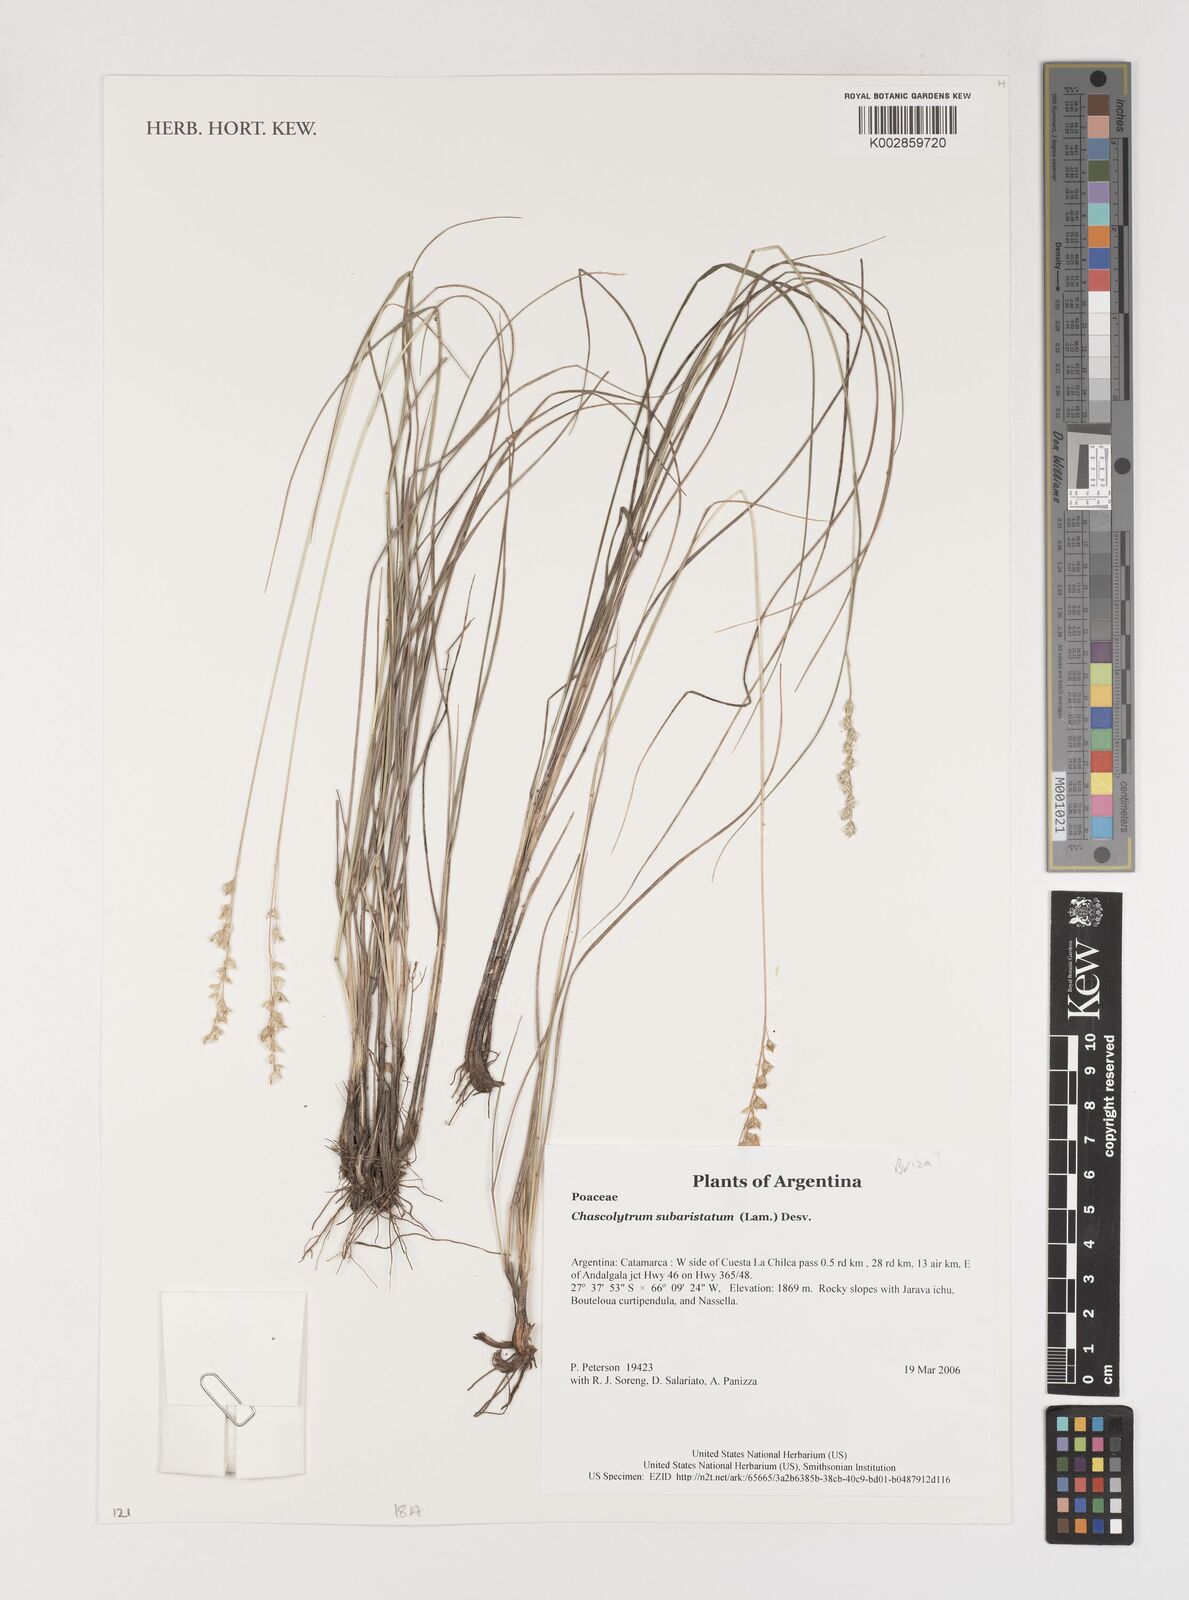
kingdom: Plantae
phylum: Tracheophyta
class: Liliopsida
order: Poales
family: Poaceae
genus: Chascolytrum
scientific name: Chascolytrum subaristatum
